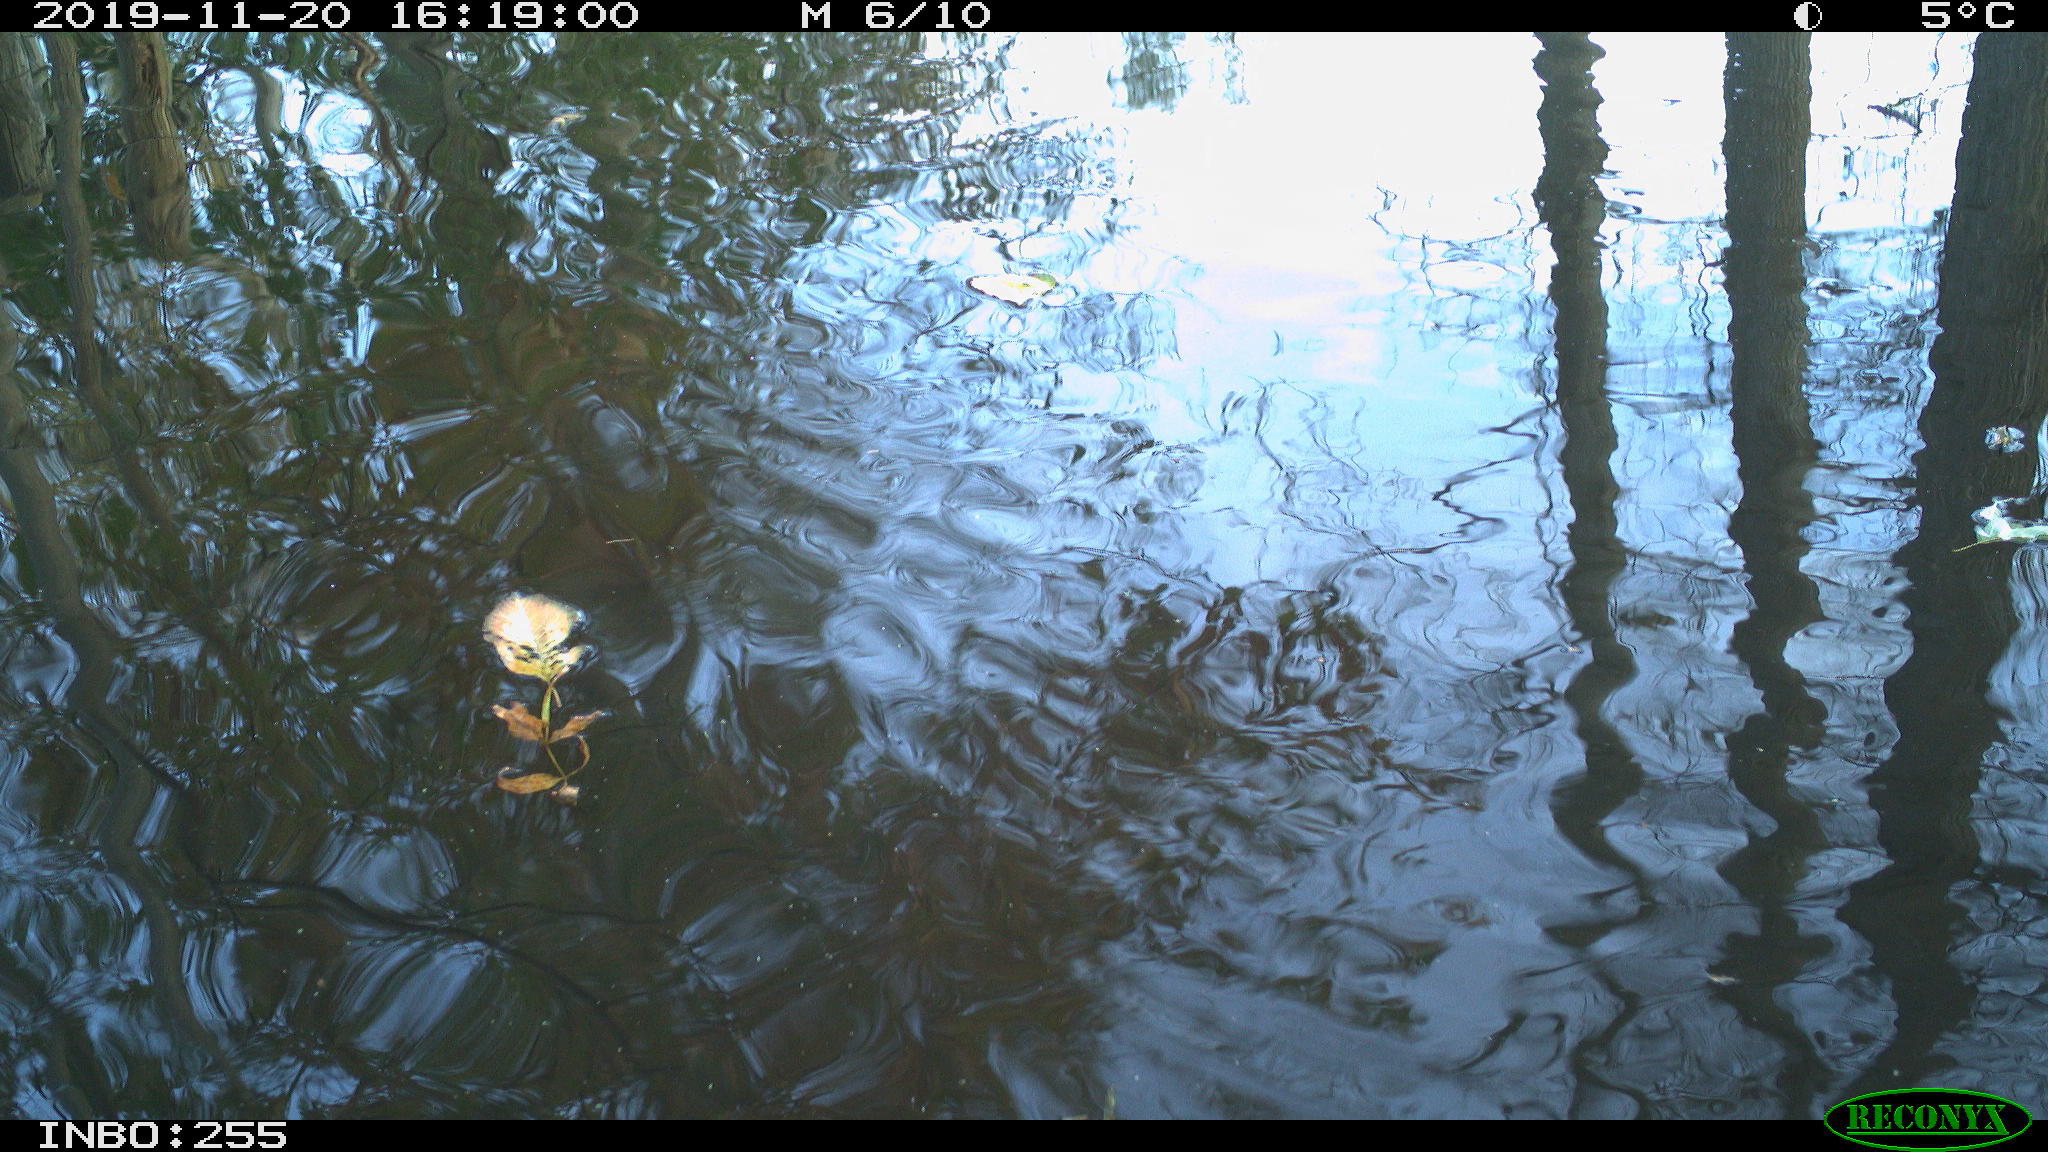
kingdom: Animalia
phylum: Chordata
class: Aves
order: Gruiformes
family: Rallidae
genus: Gallinula
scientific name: Gallinula chloropus
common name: Common moorhen
